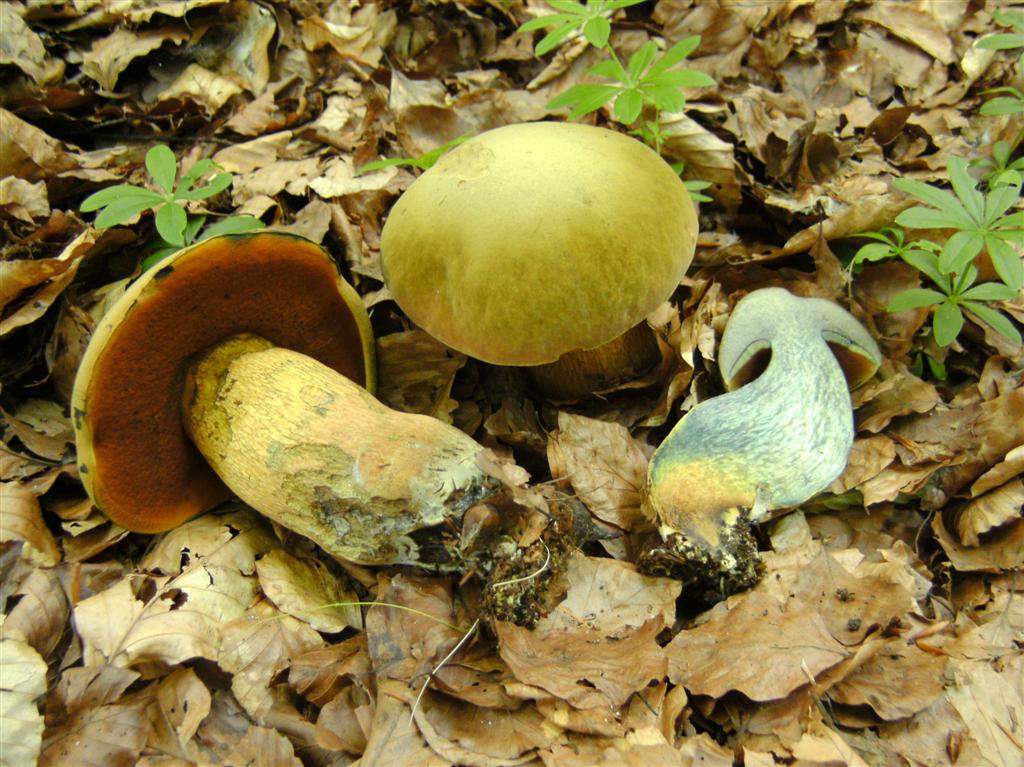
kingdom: Fungi
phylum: Basidiomycota
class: Agaricomycetes
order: Boletales
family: Boletaceae
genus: Suillellus
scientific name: Suillellus luridus
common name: netstokket indigorørhat
